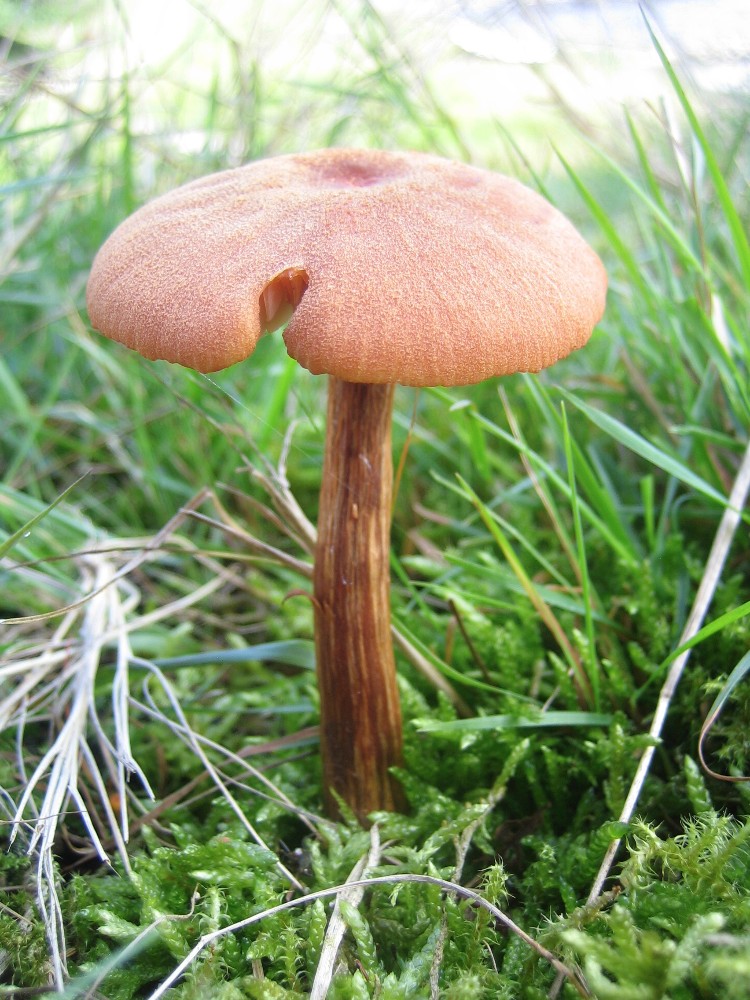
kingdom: Fungi
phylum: Basidiomycota
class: Agaricomycetes
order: Agaricales
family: Hydnangiaceae
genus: Laccaria
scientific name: Laccaria proxima
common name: stor ametysthat
